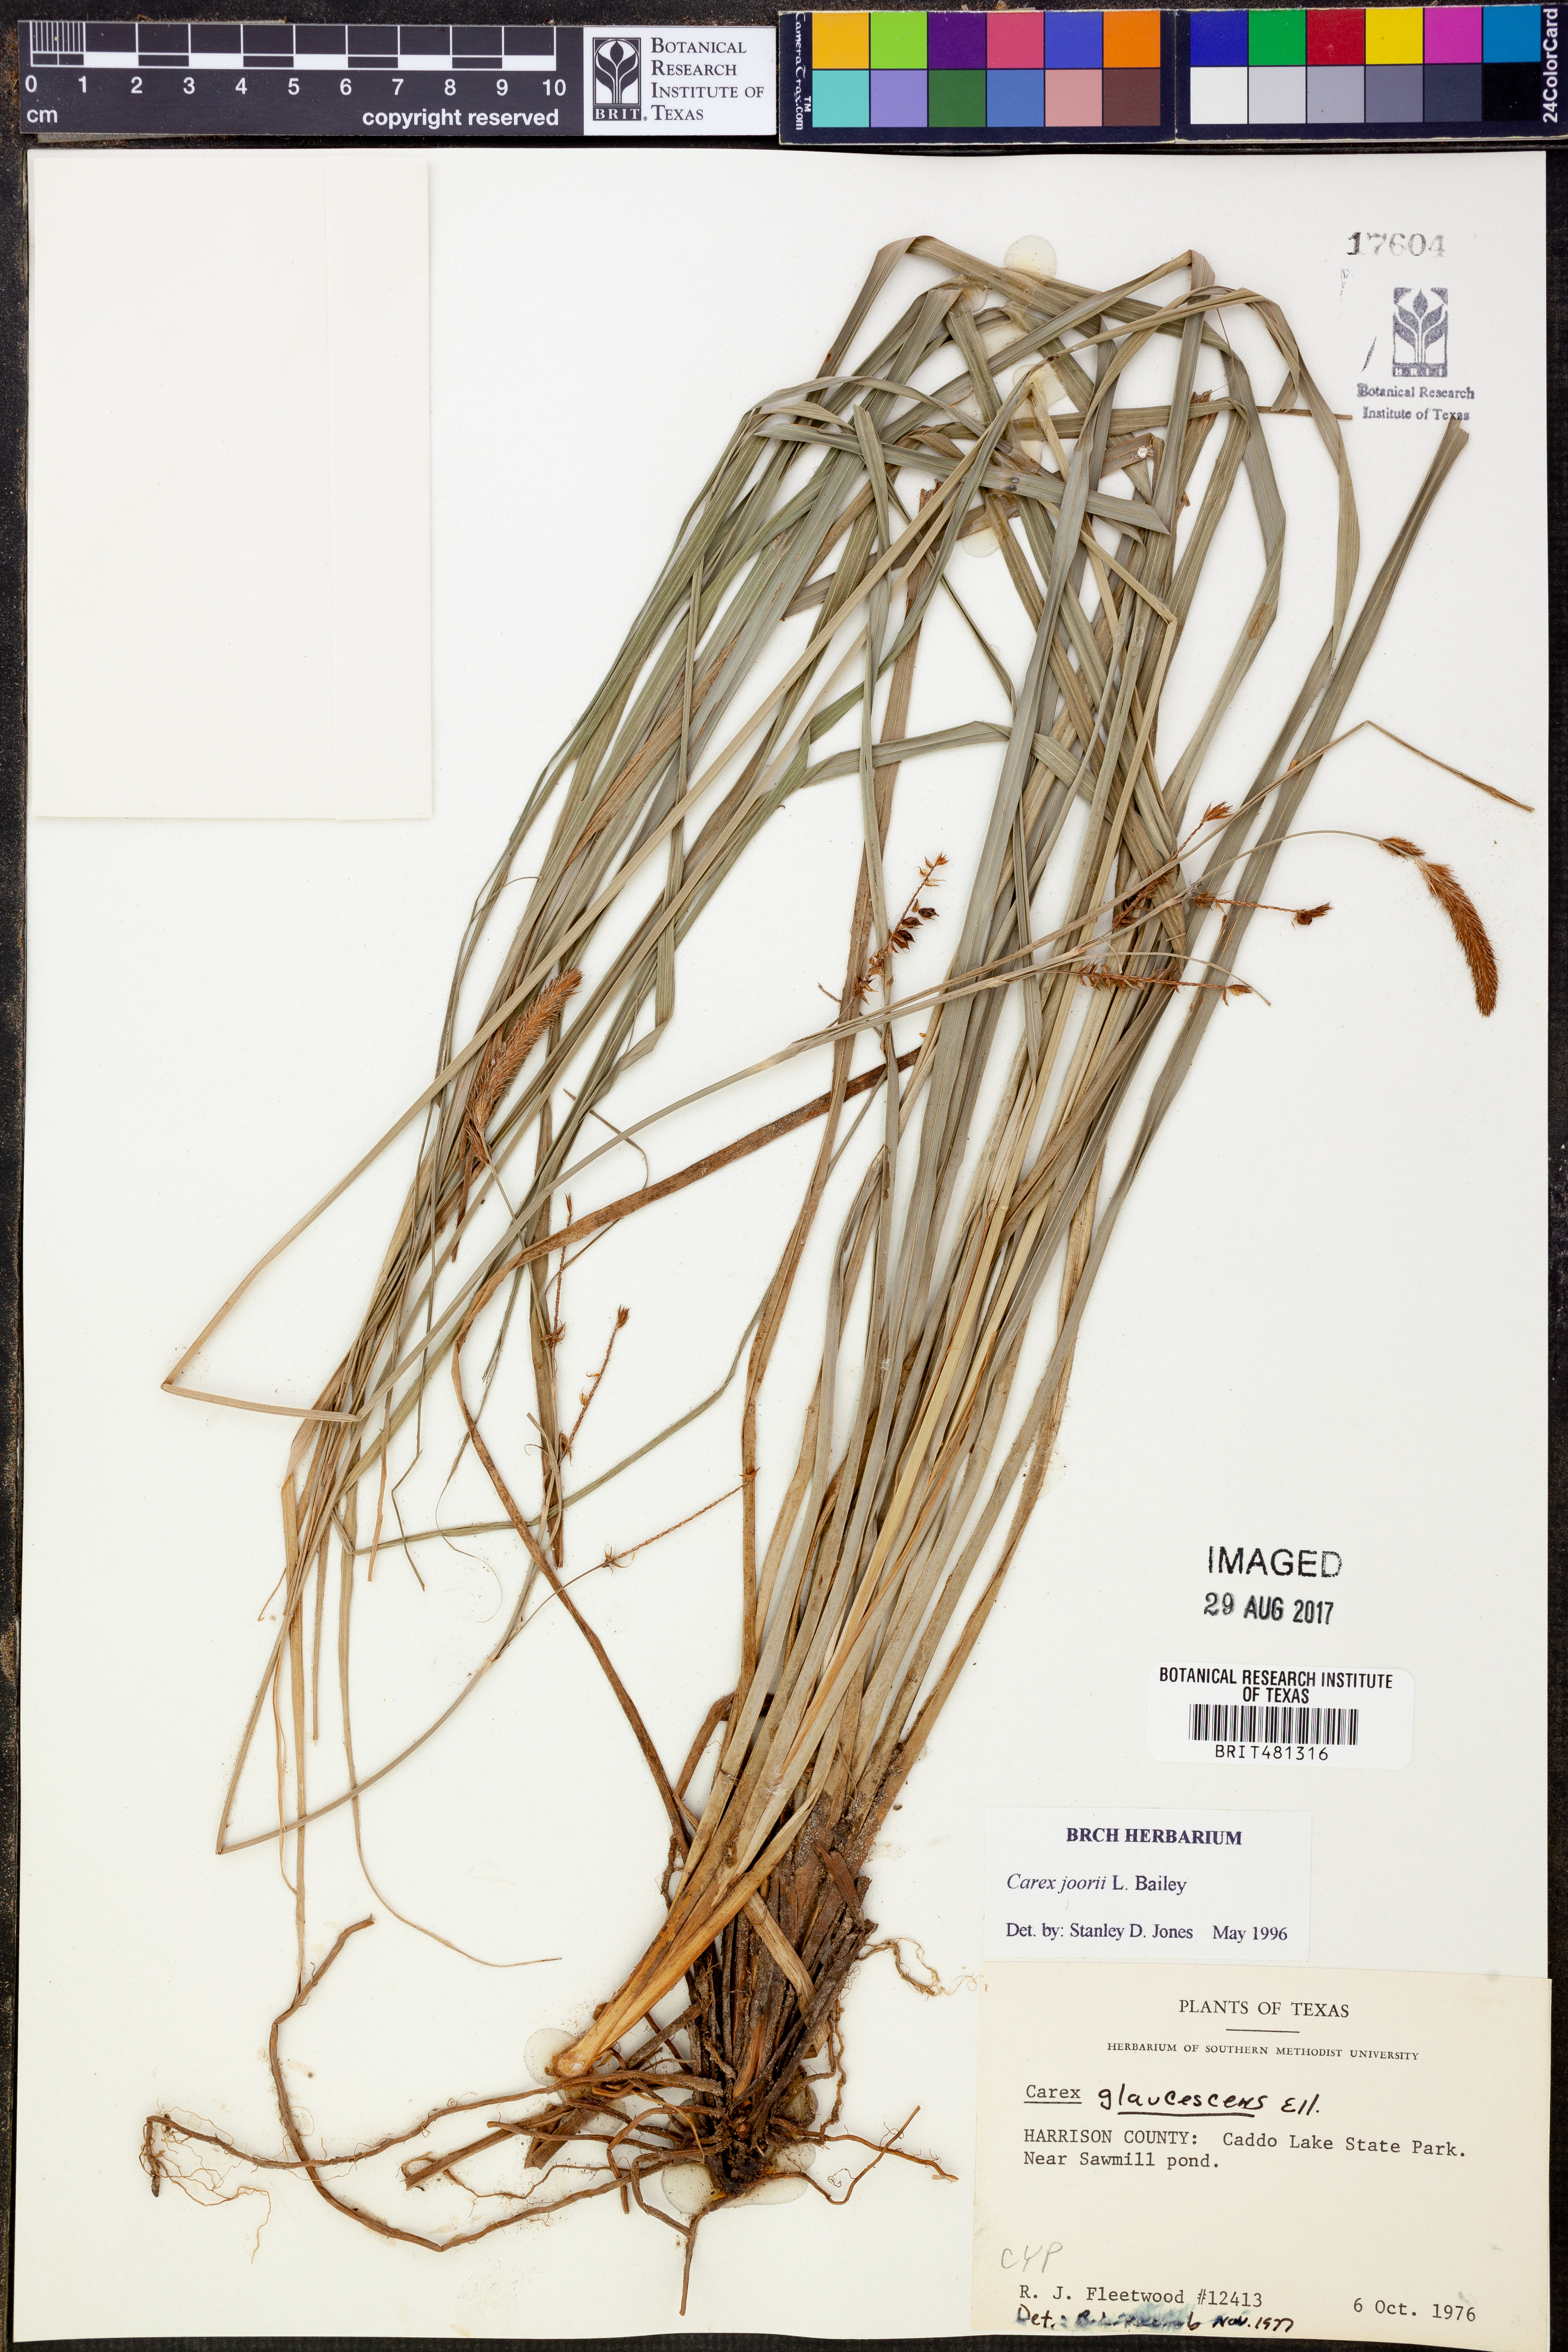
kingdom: Plantae
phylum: Tracheophyta
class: Liliopsida
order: Poales
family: Cyperaceae
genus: Carex
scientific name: Carex joorii
